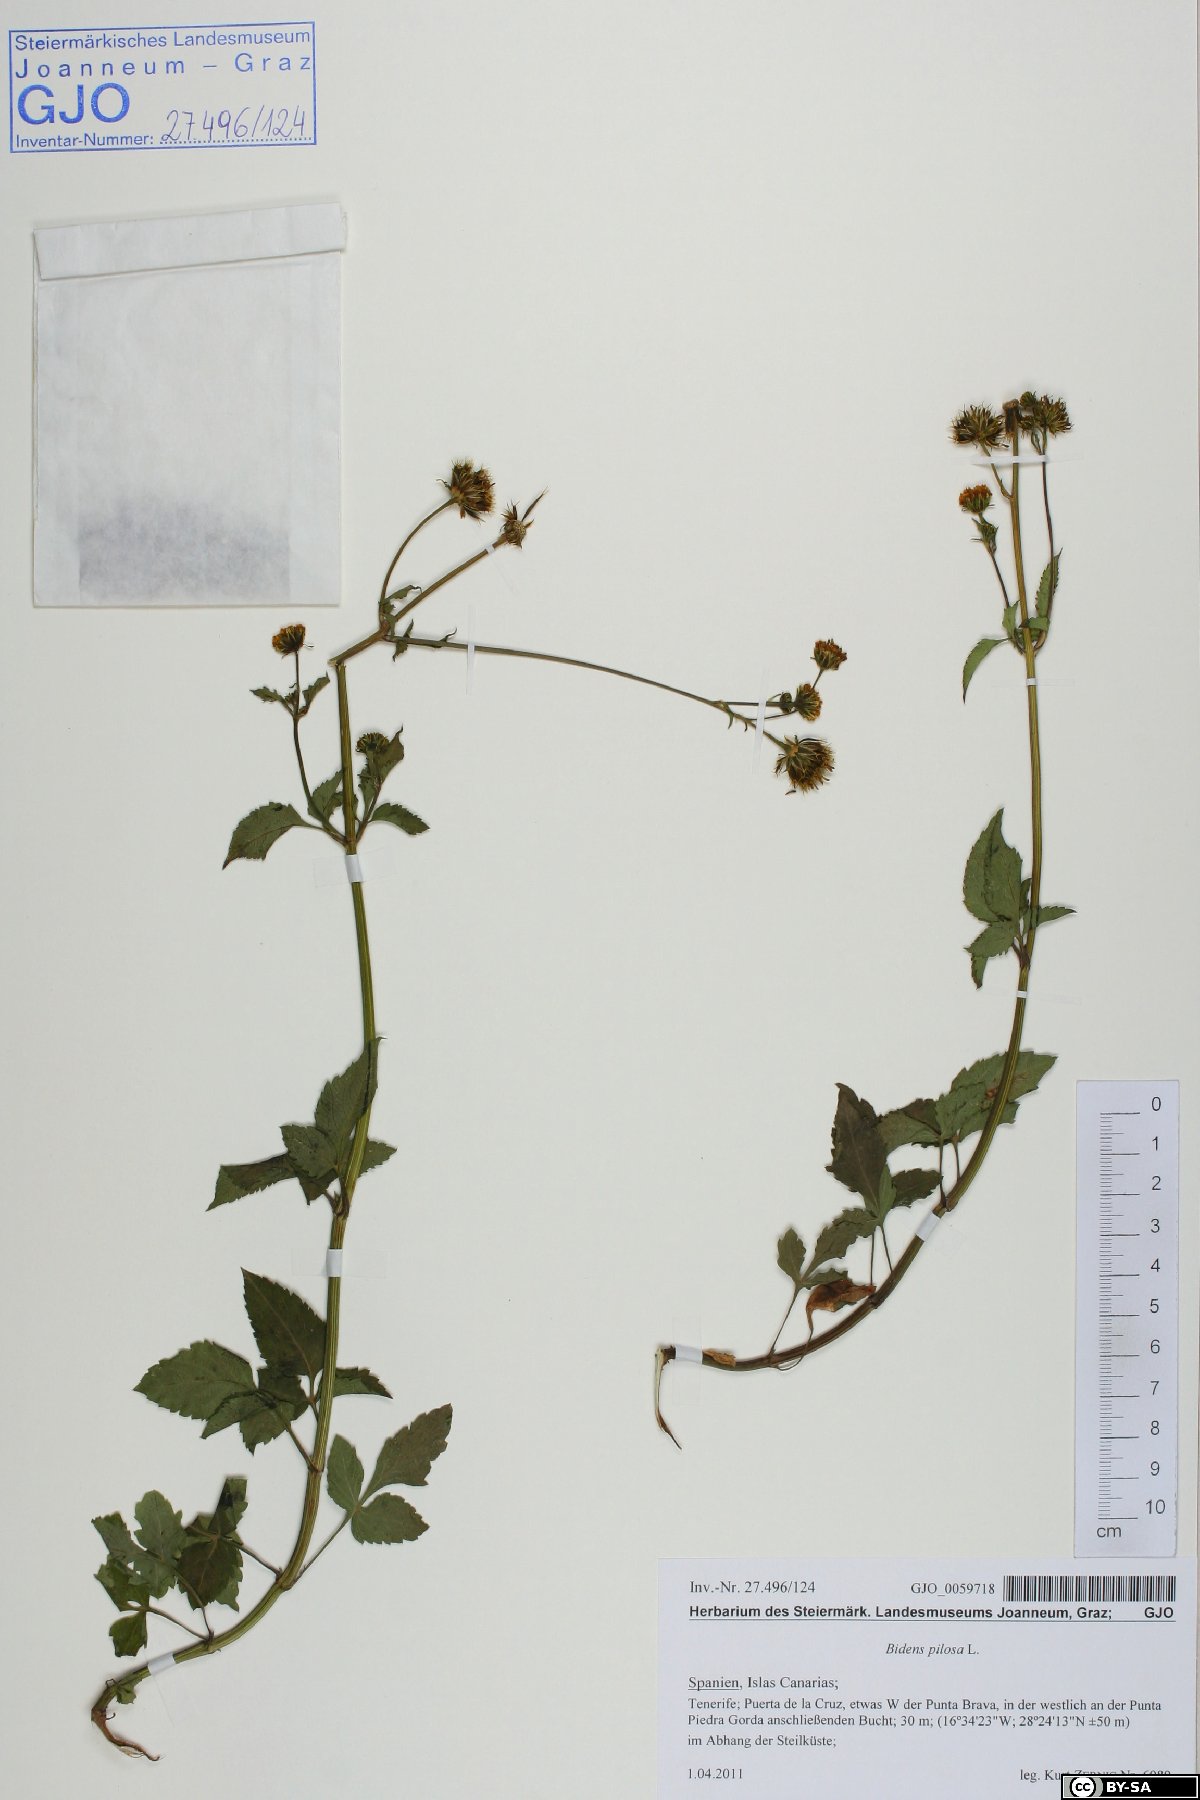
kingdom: Plantae
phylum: Tracheophyta
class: Magnoliopsida
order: Asterales
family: Asteraceae
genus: Bidens
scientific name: Bidens pilosa
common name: Black-jack
